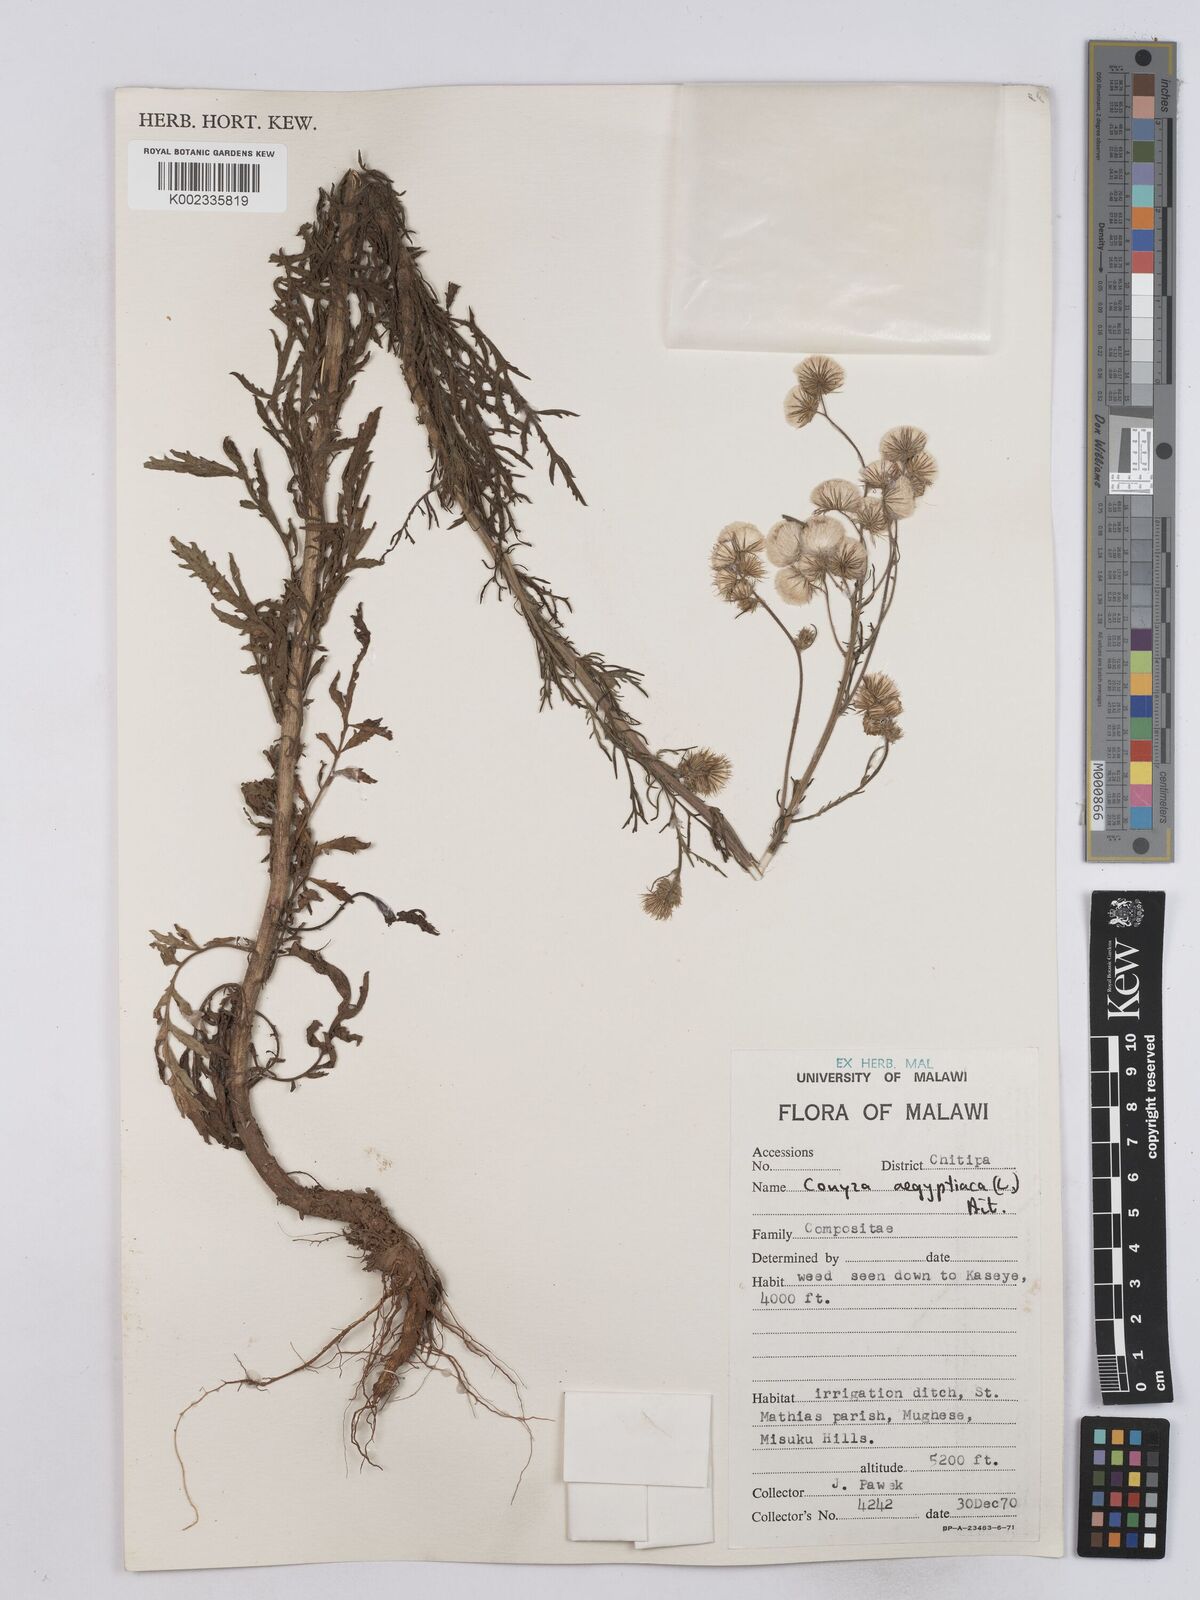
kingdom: Plantae
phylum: Tracheophyta
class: Magnoliopsida
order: Asterales
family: Asteraceae
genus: Nidorella
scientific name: Nidorella aegyptiaca
